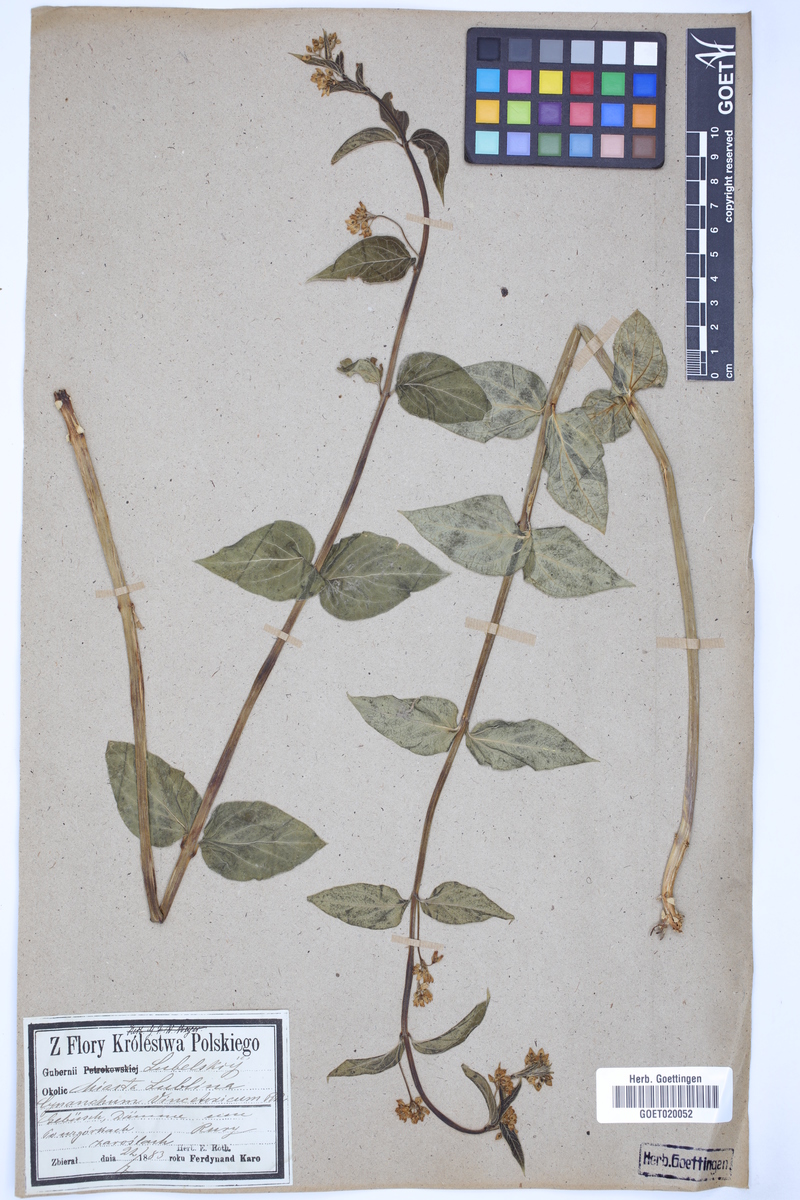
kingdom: Plantae
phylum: Tracheophyta
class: Magnoliopsida
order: Gentianales
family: Apocynaceae
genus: Vincetoxicum
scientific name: Vincetoxicum hirundinaria
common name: White swallowwort
